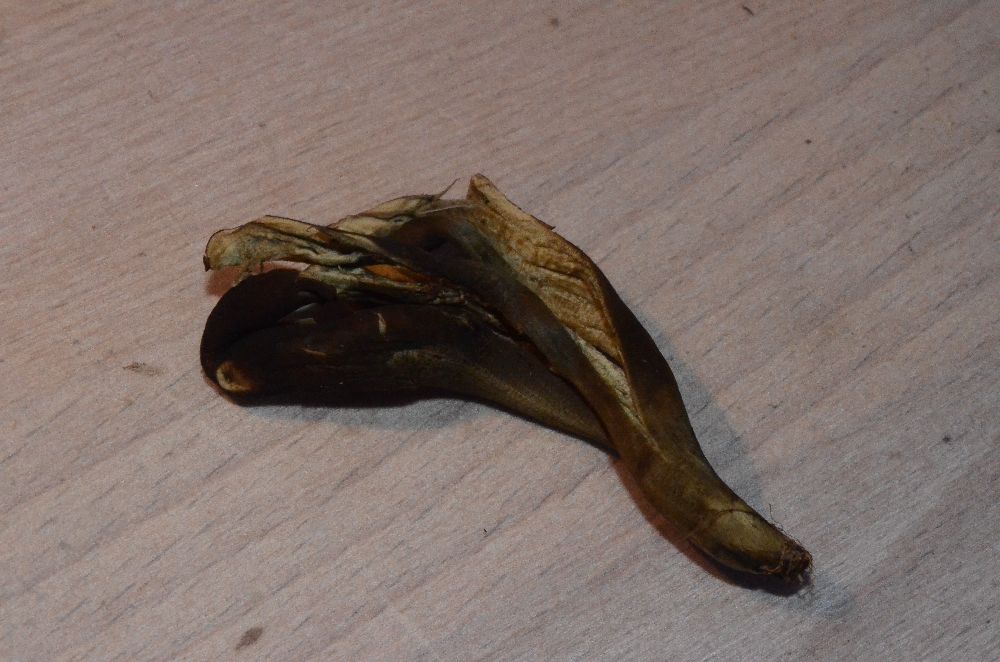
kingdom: Fungi
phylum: Ascomycota
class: Geoglossomycetes
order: Geoglossales
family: Geoglossaceae
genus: Geoglossum
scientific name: Geoglossum atropurpureum
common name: purpursort farvetunge
